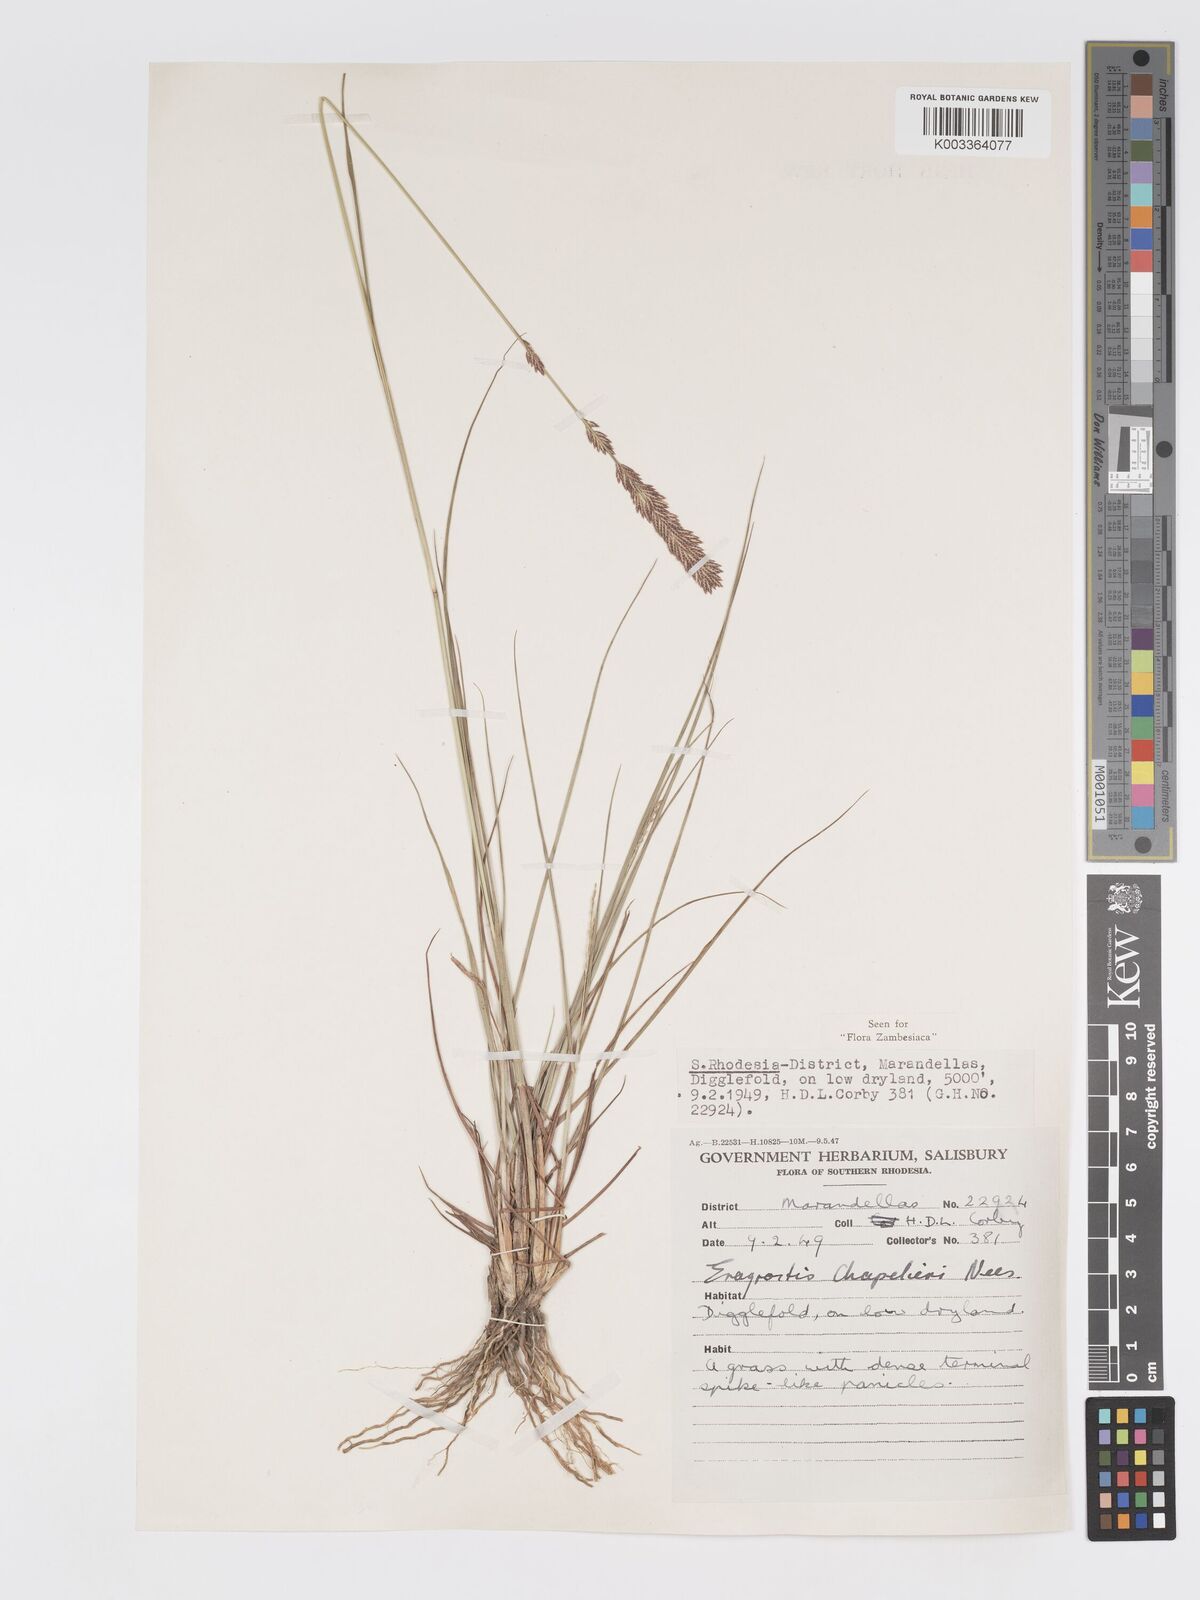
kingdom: Plantae
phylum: Tracheophyta
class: Liliopsida
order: Poales
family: Poaceae
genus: Eragrostis
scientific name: Eragrostis chapelieri
